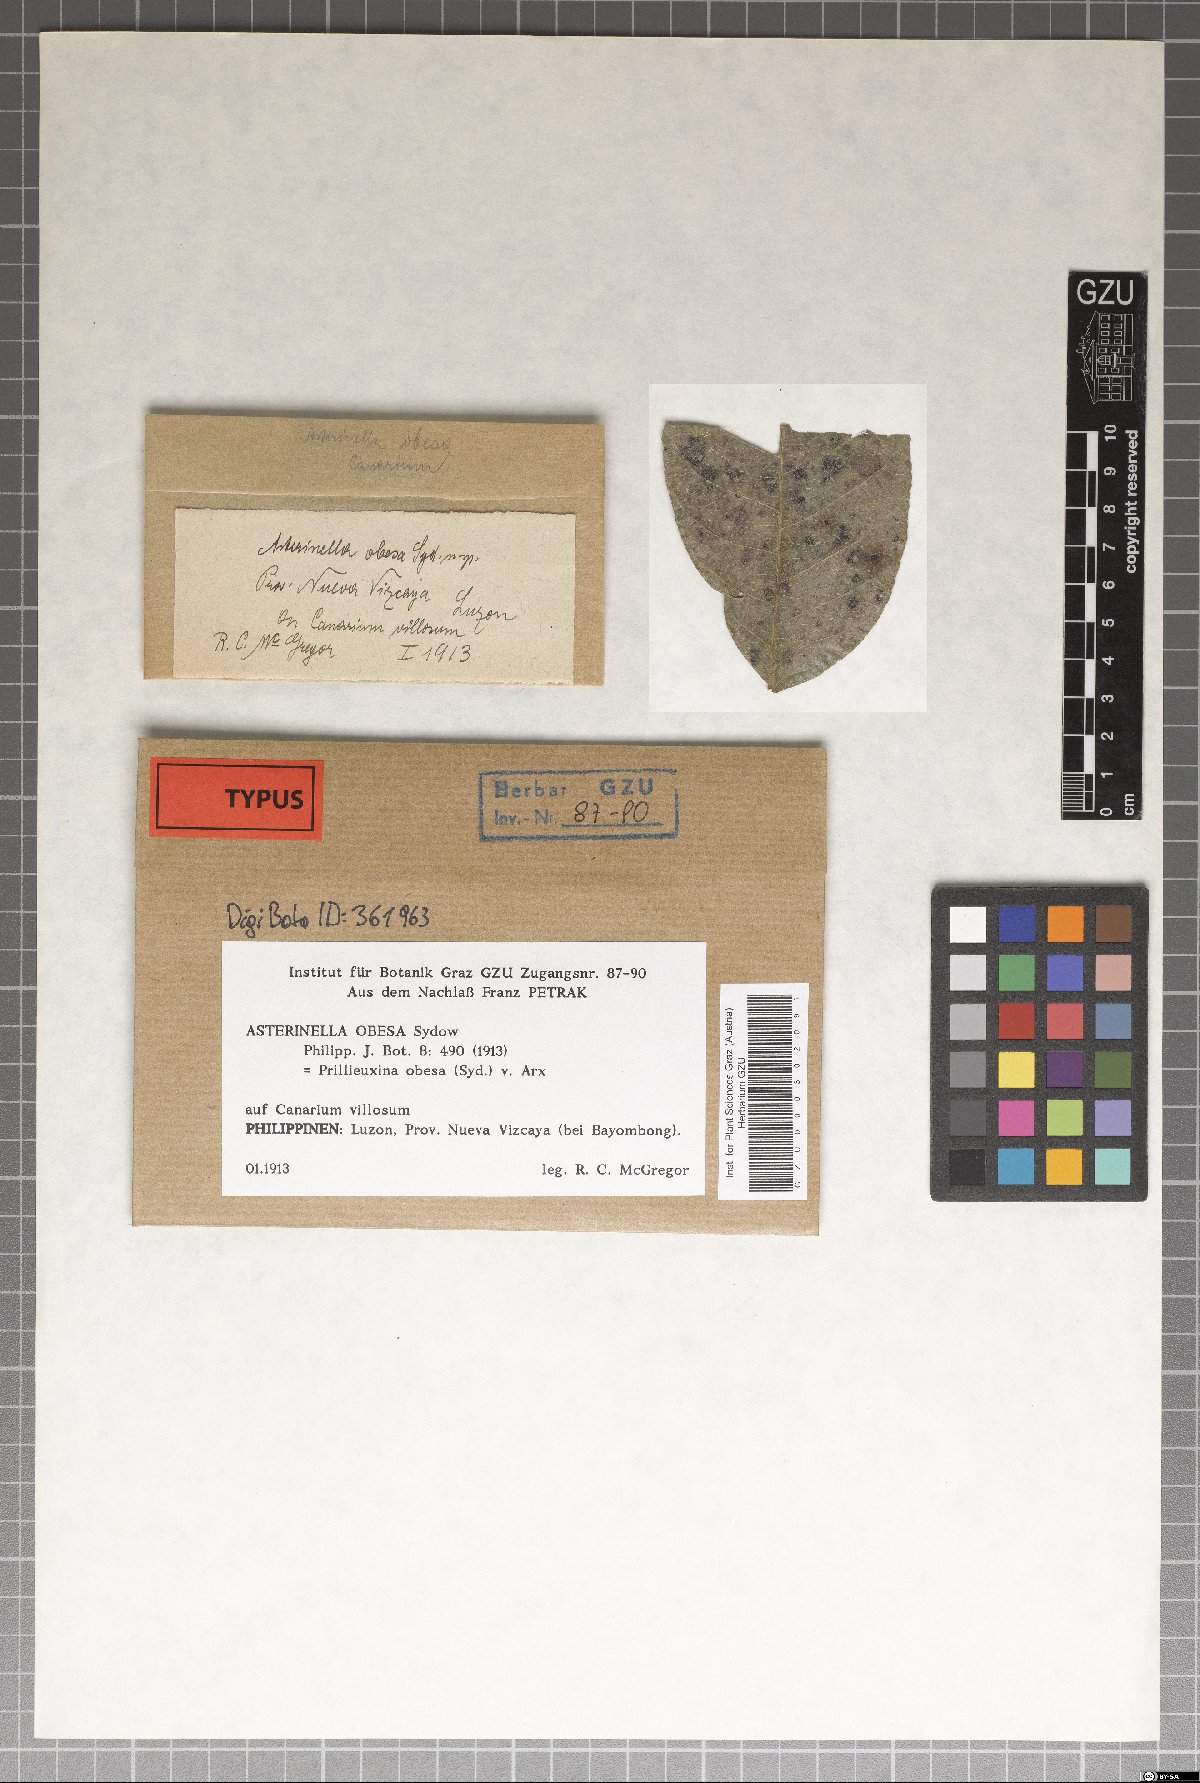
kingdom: Fungi
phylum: Ascomycota
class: Dothideomycetes
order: Asterinales
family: Asterinaceae
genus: Prillieuxina
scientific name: Prillieuxina obesa
